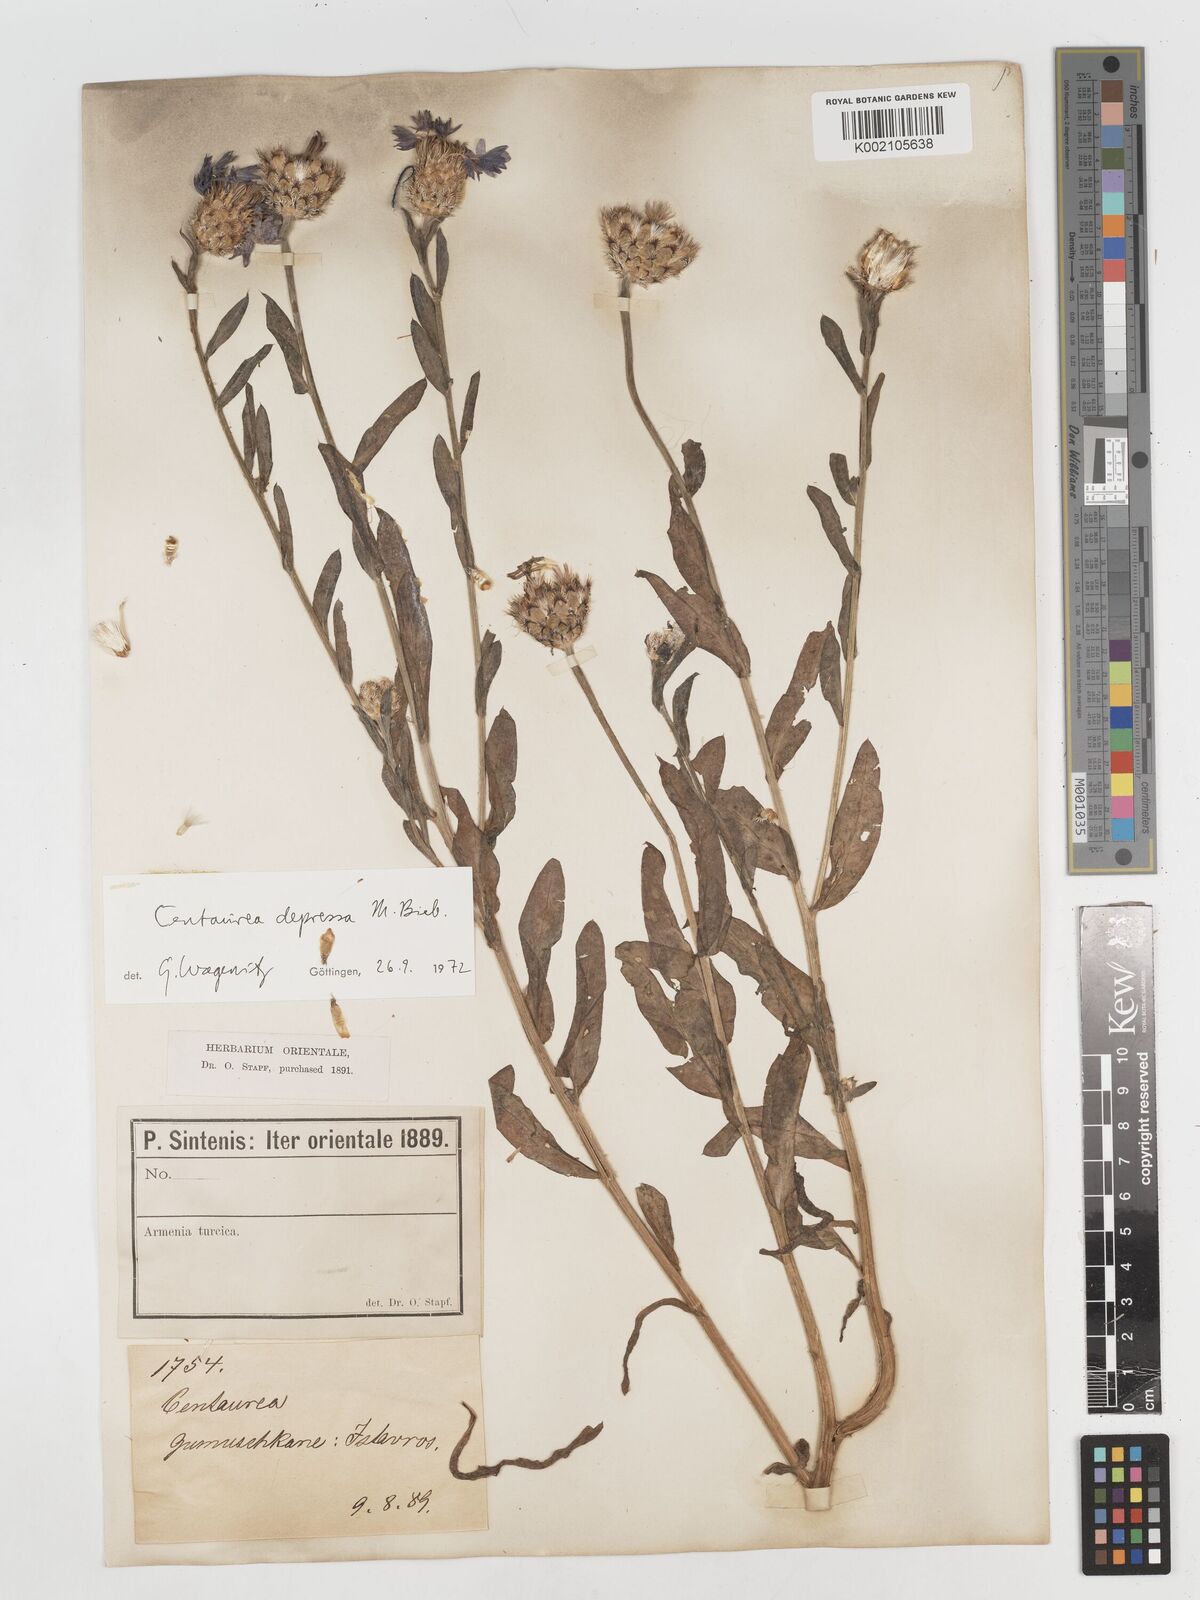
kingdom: Plantae
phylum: Tracheophyta
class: Magnoliopsida
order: Asterales
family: Asteraceae
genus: Centaurea
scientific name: Centaurea depressa
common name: Iranian knapweed
